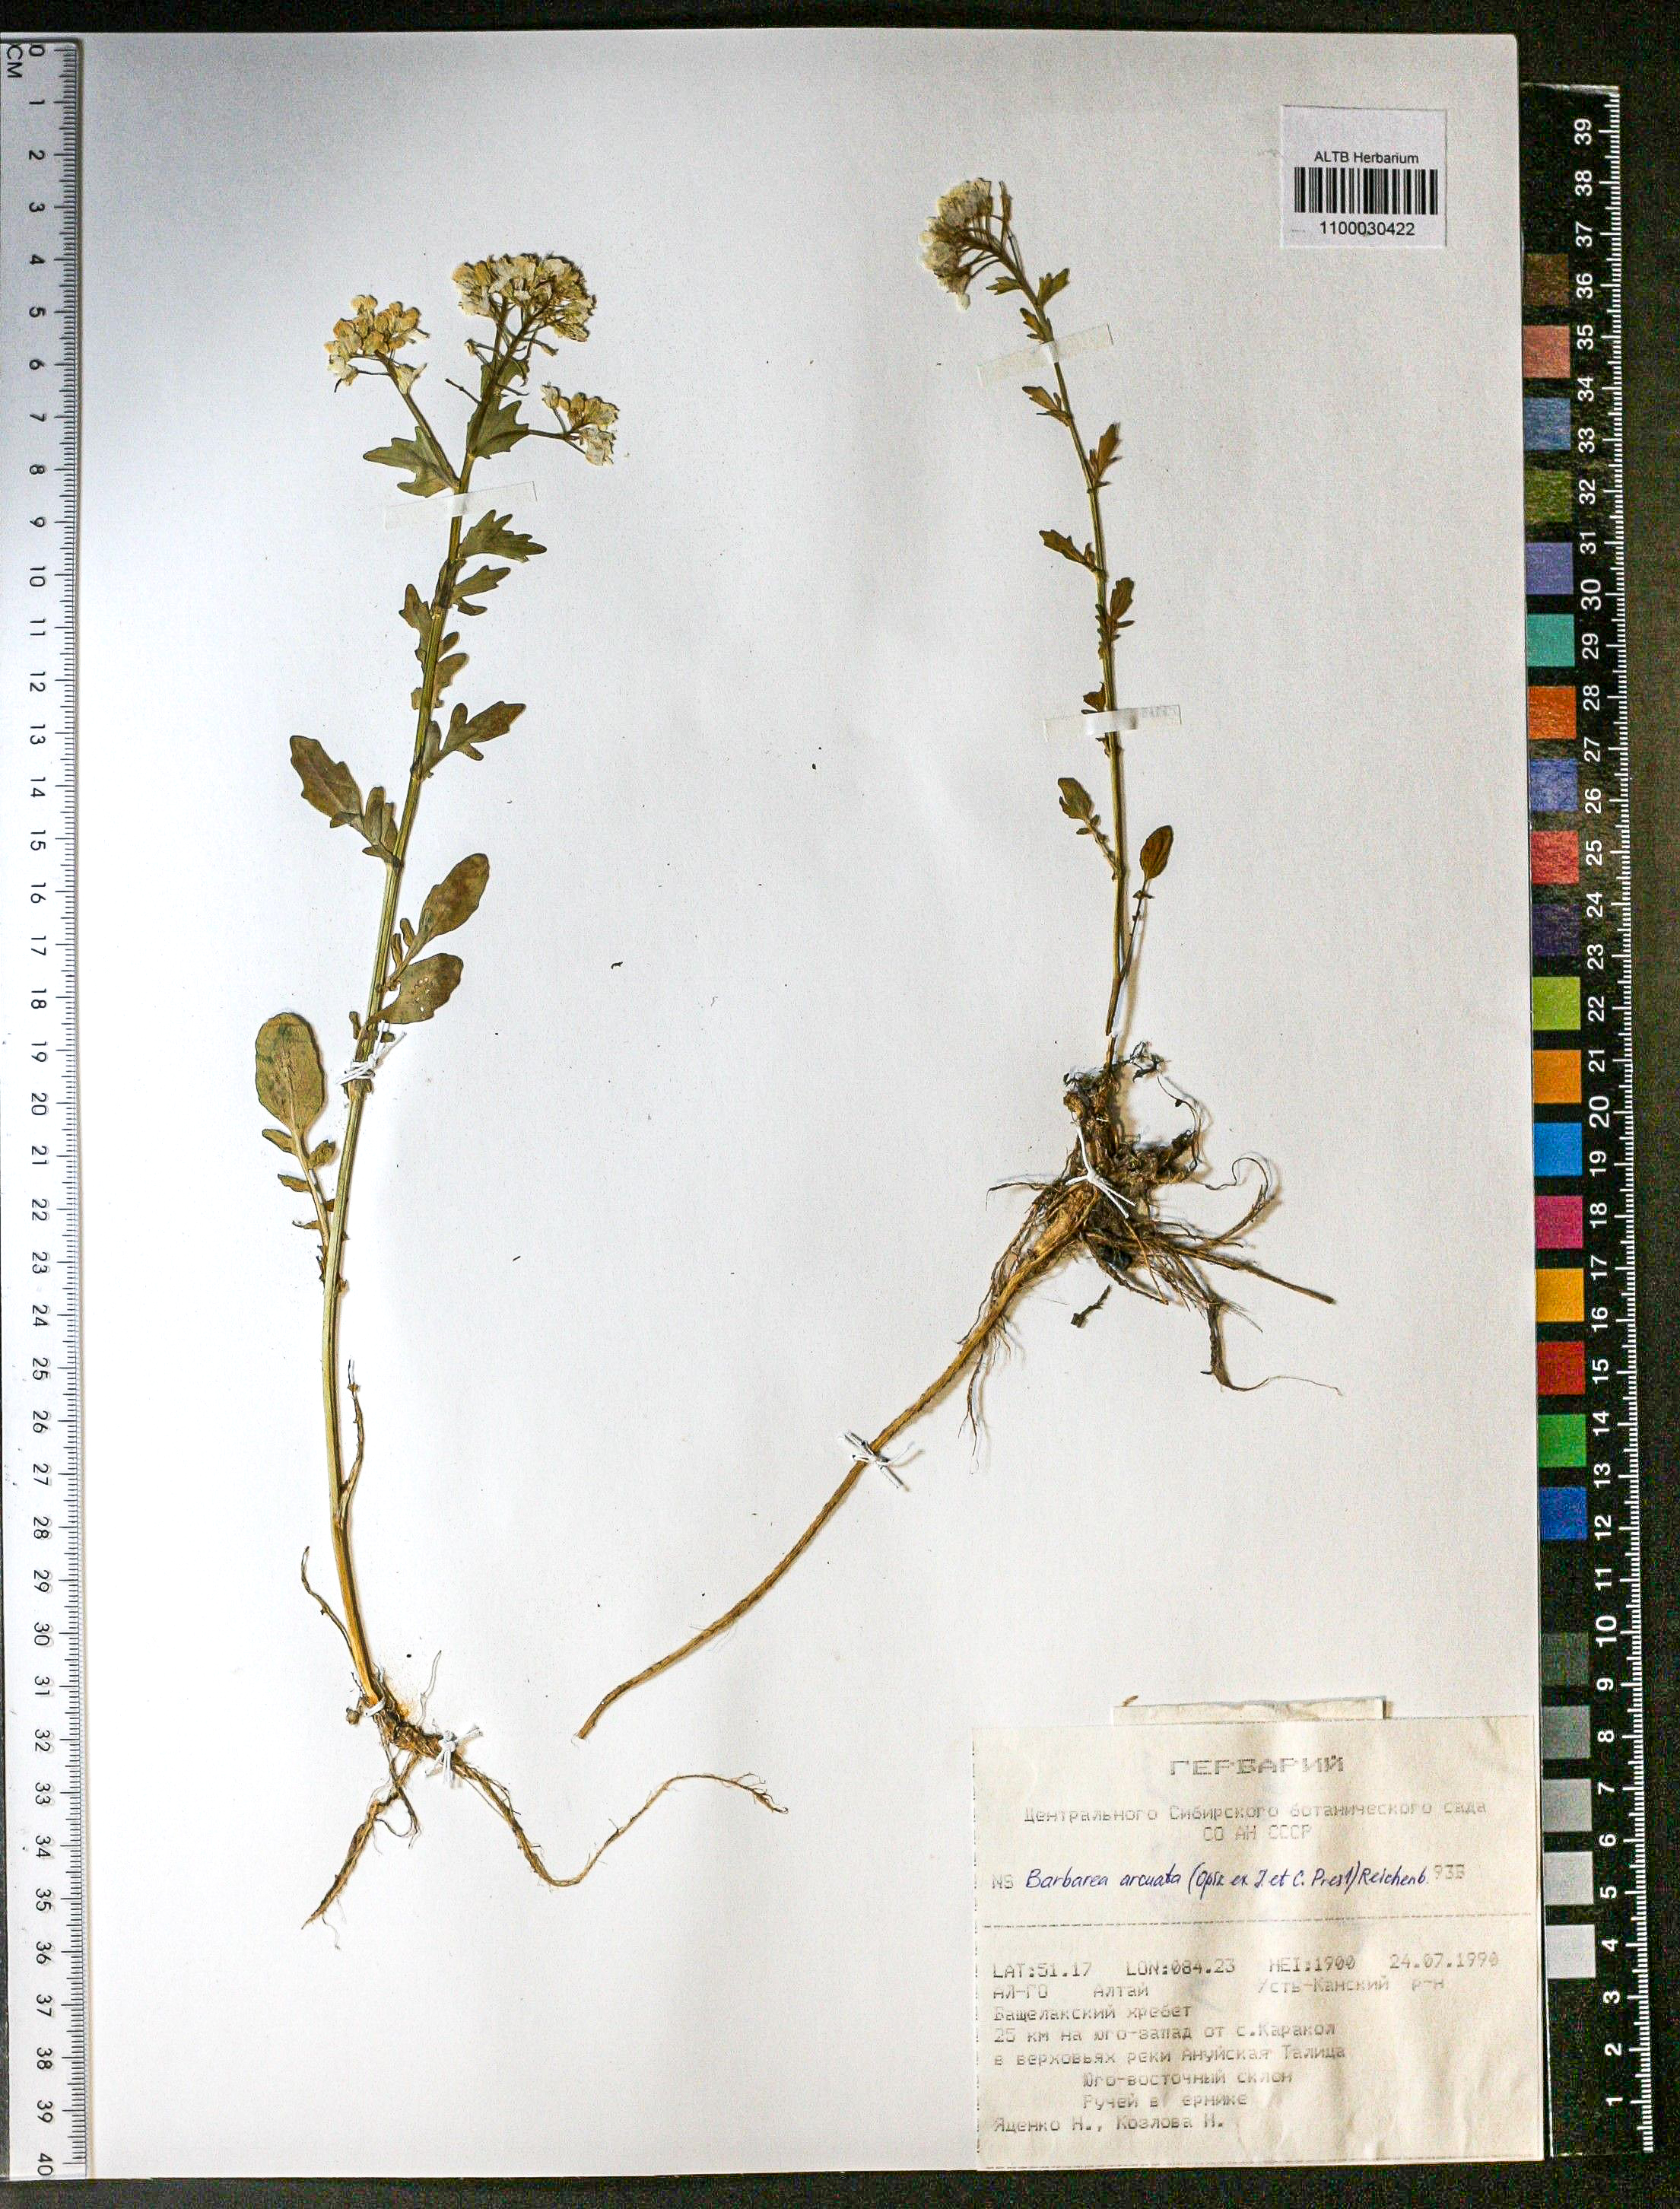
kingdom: Plantae
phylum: Tracheophyta
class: Magnoliopsida
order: Brassicales
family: Brassicaceae
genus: Barbarea
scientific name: Barbarea vulgaris
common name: Cressy-greens
